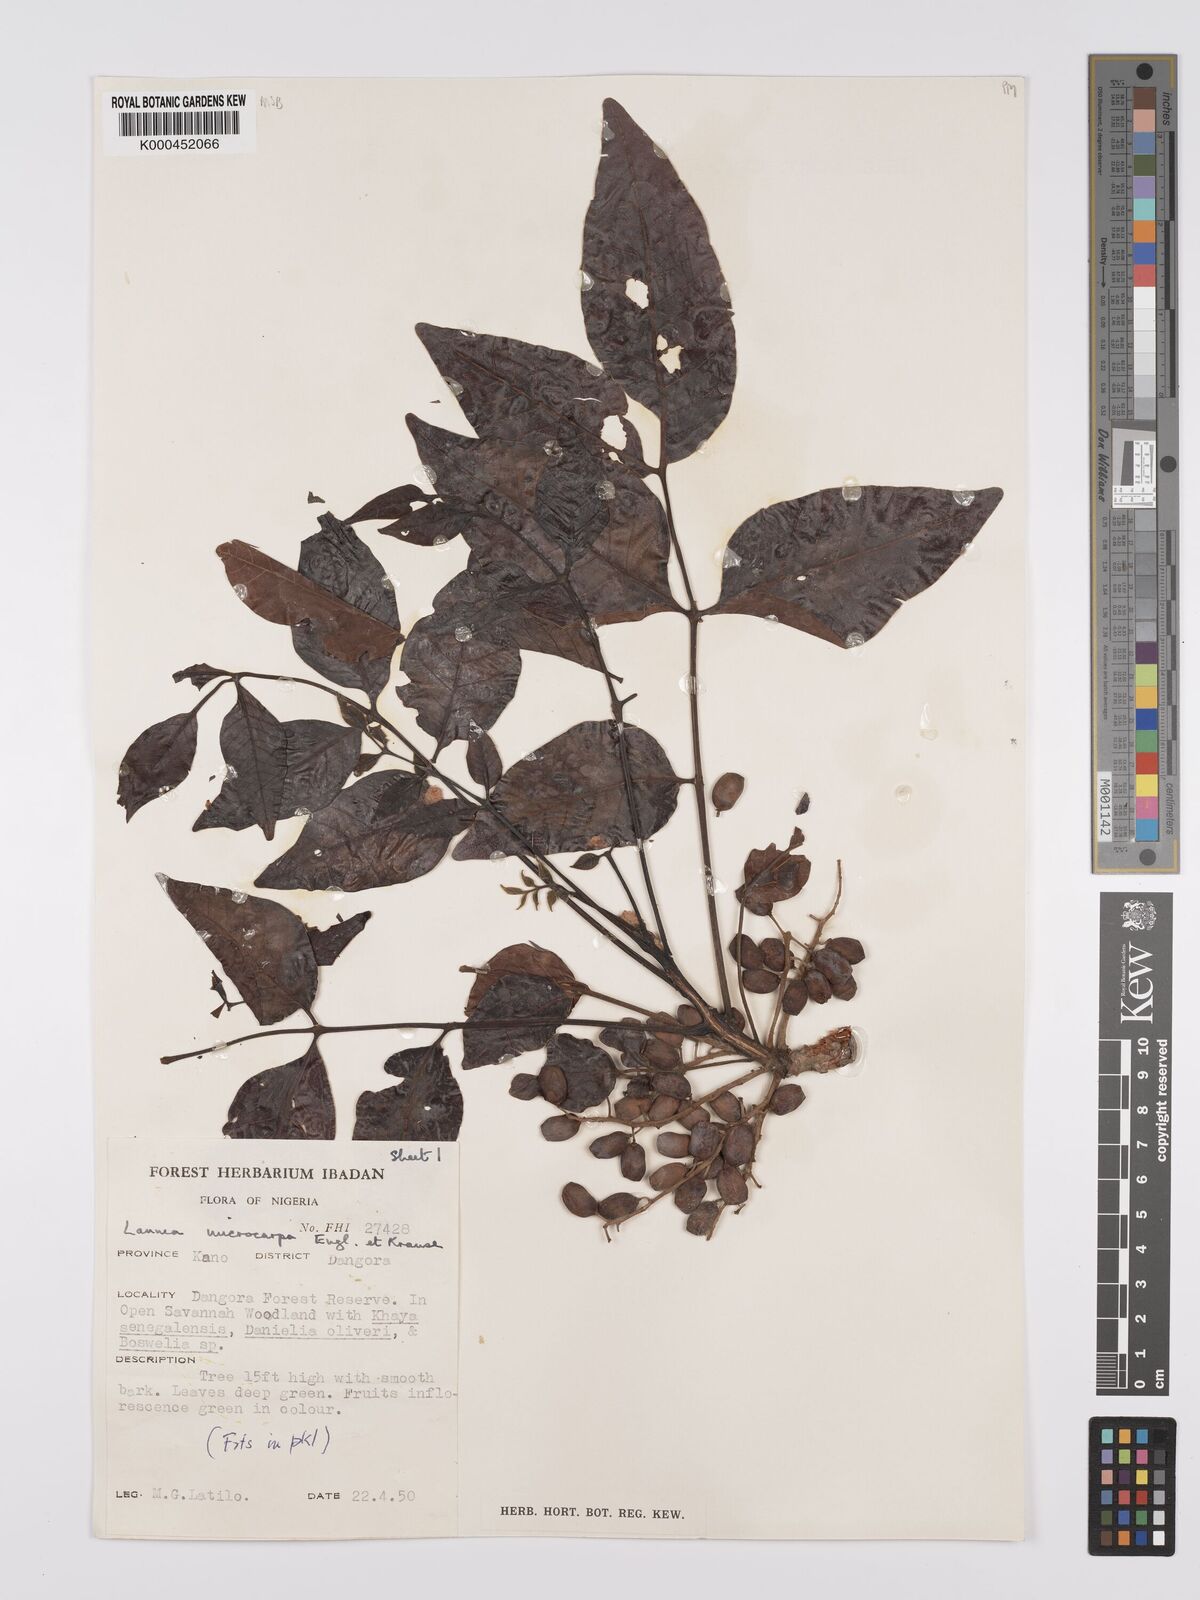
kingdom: Plantae
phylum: Tracheophyta
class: Magnoliopsida
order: Sapindales
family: Anacardiaceae
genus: Lannea
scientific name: Lannea microcarpa
